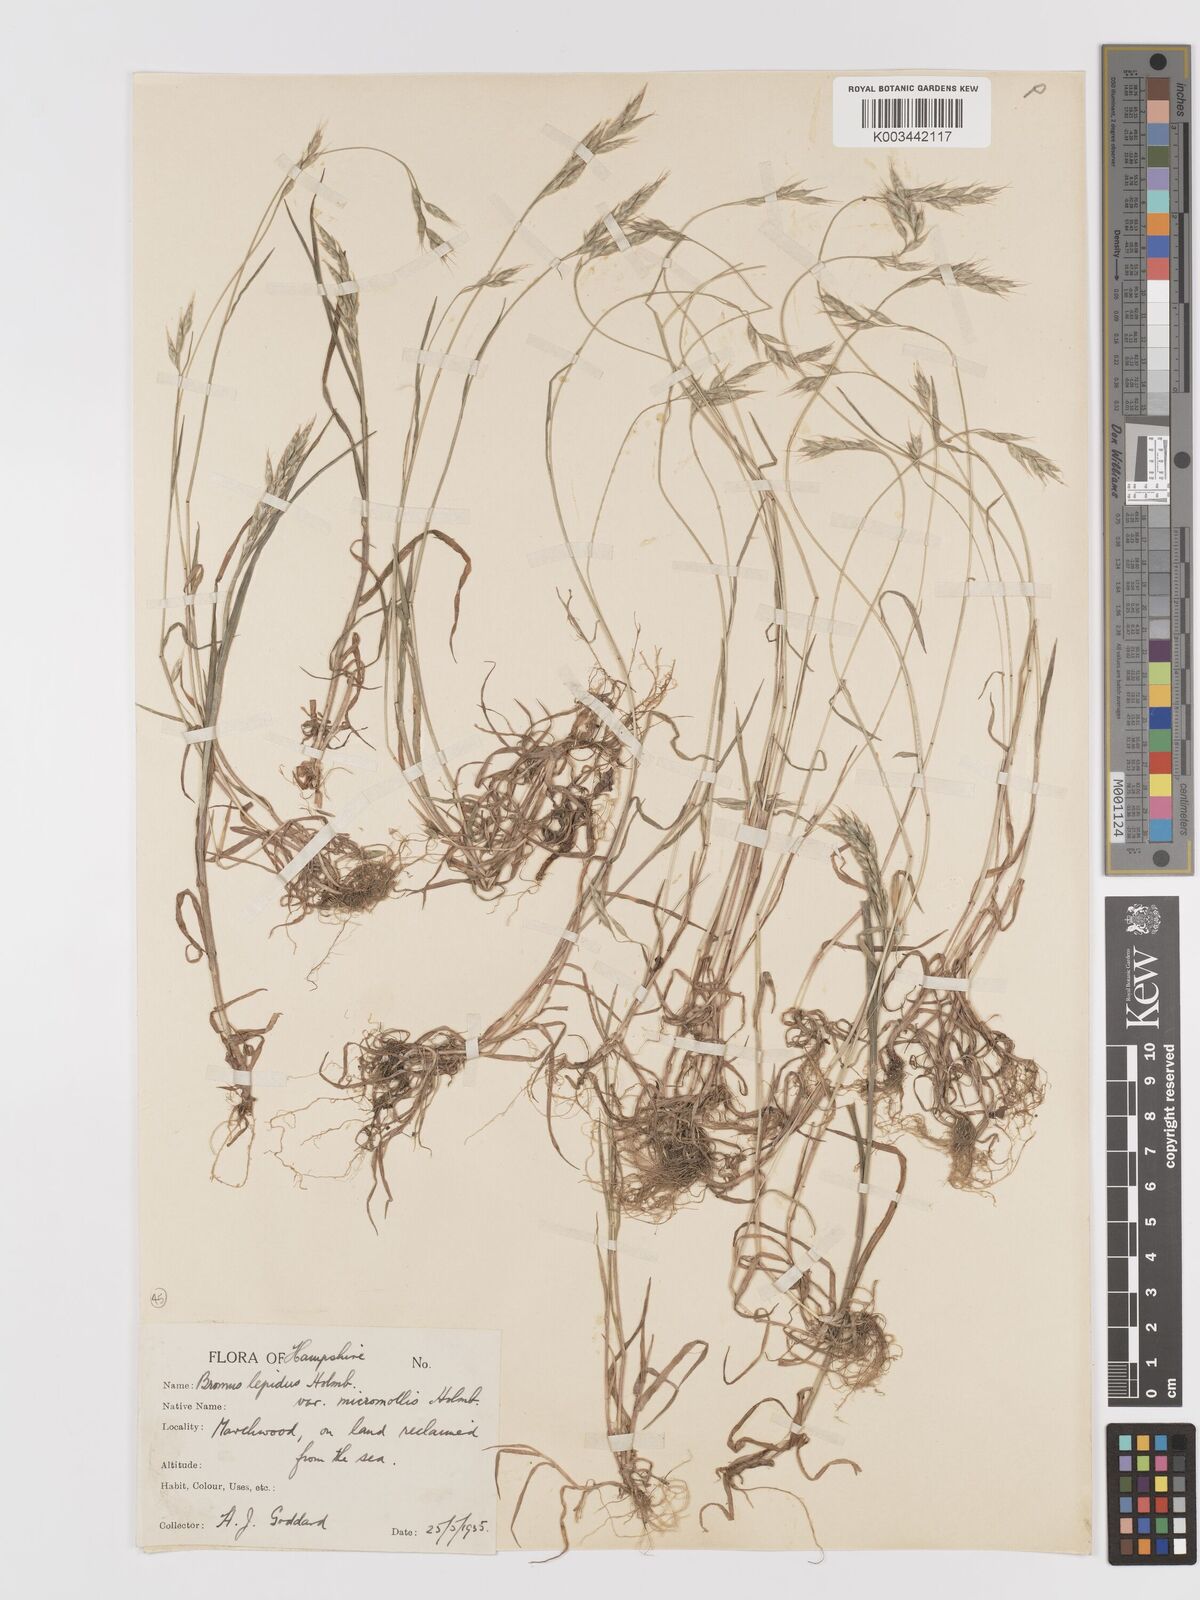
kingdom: Plantae
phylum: Tracheophyta
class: Liliopsida
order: Poales
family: Poaceae
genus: Bromus
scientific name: Bromus lepidus
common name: Slender soft-brome
